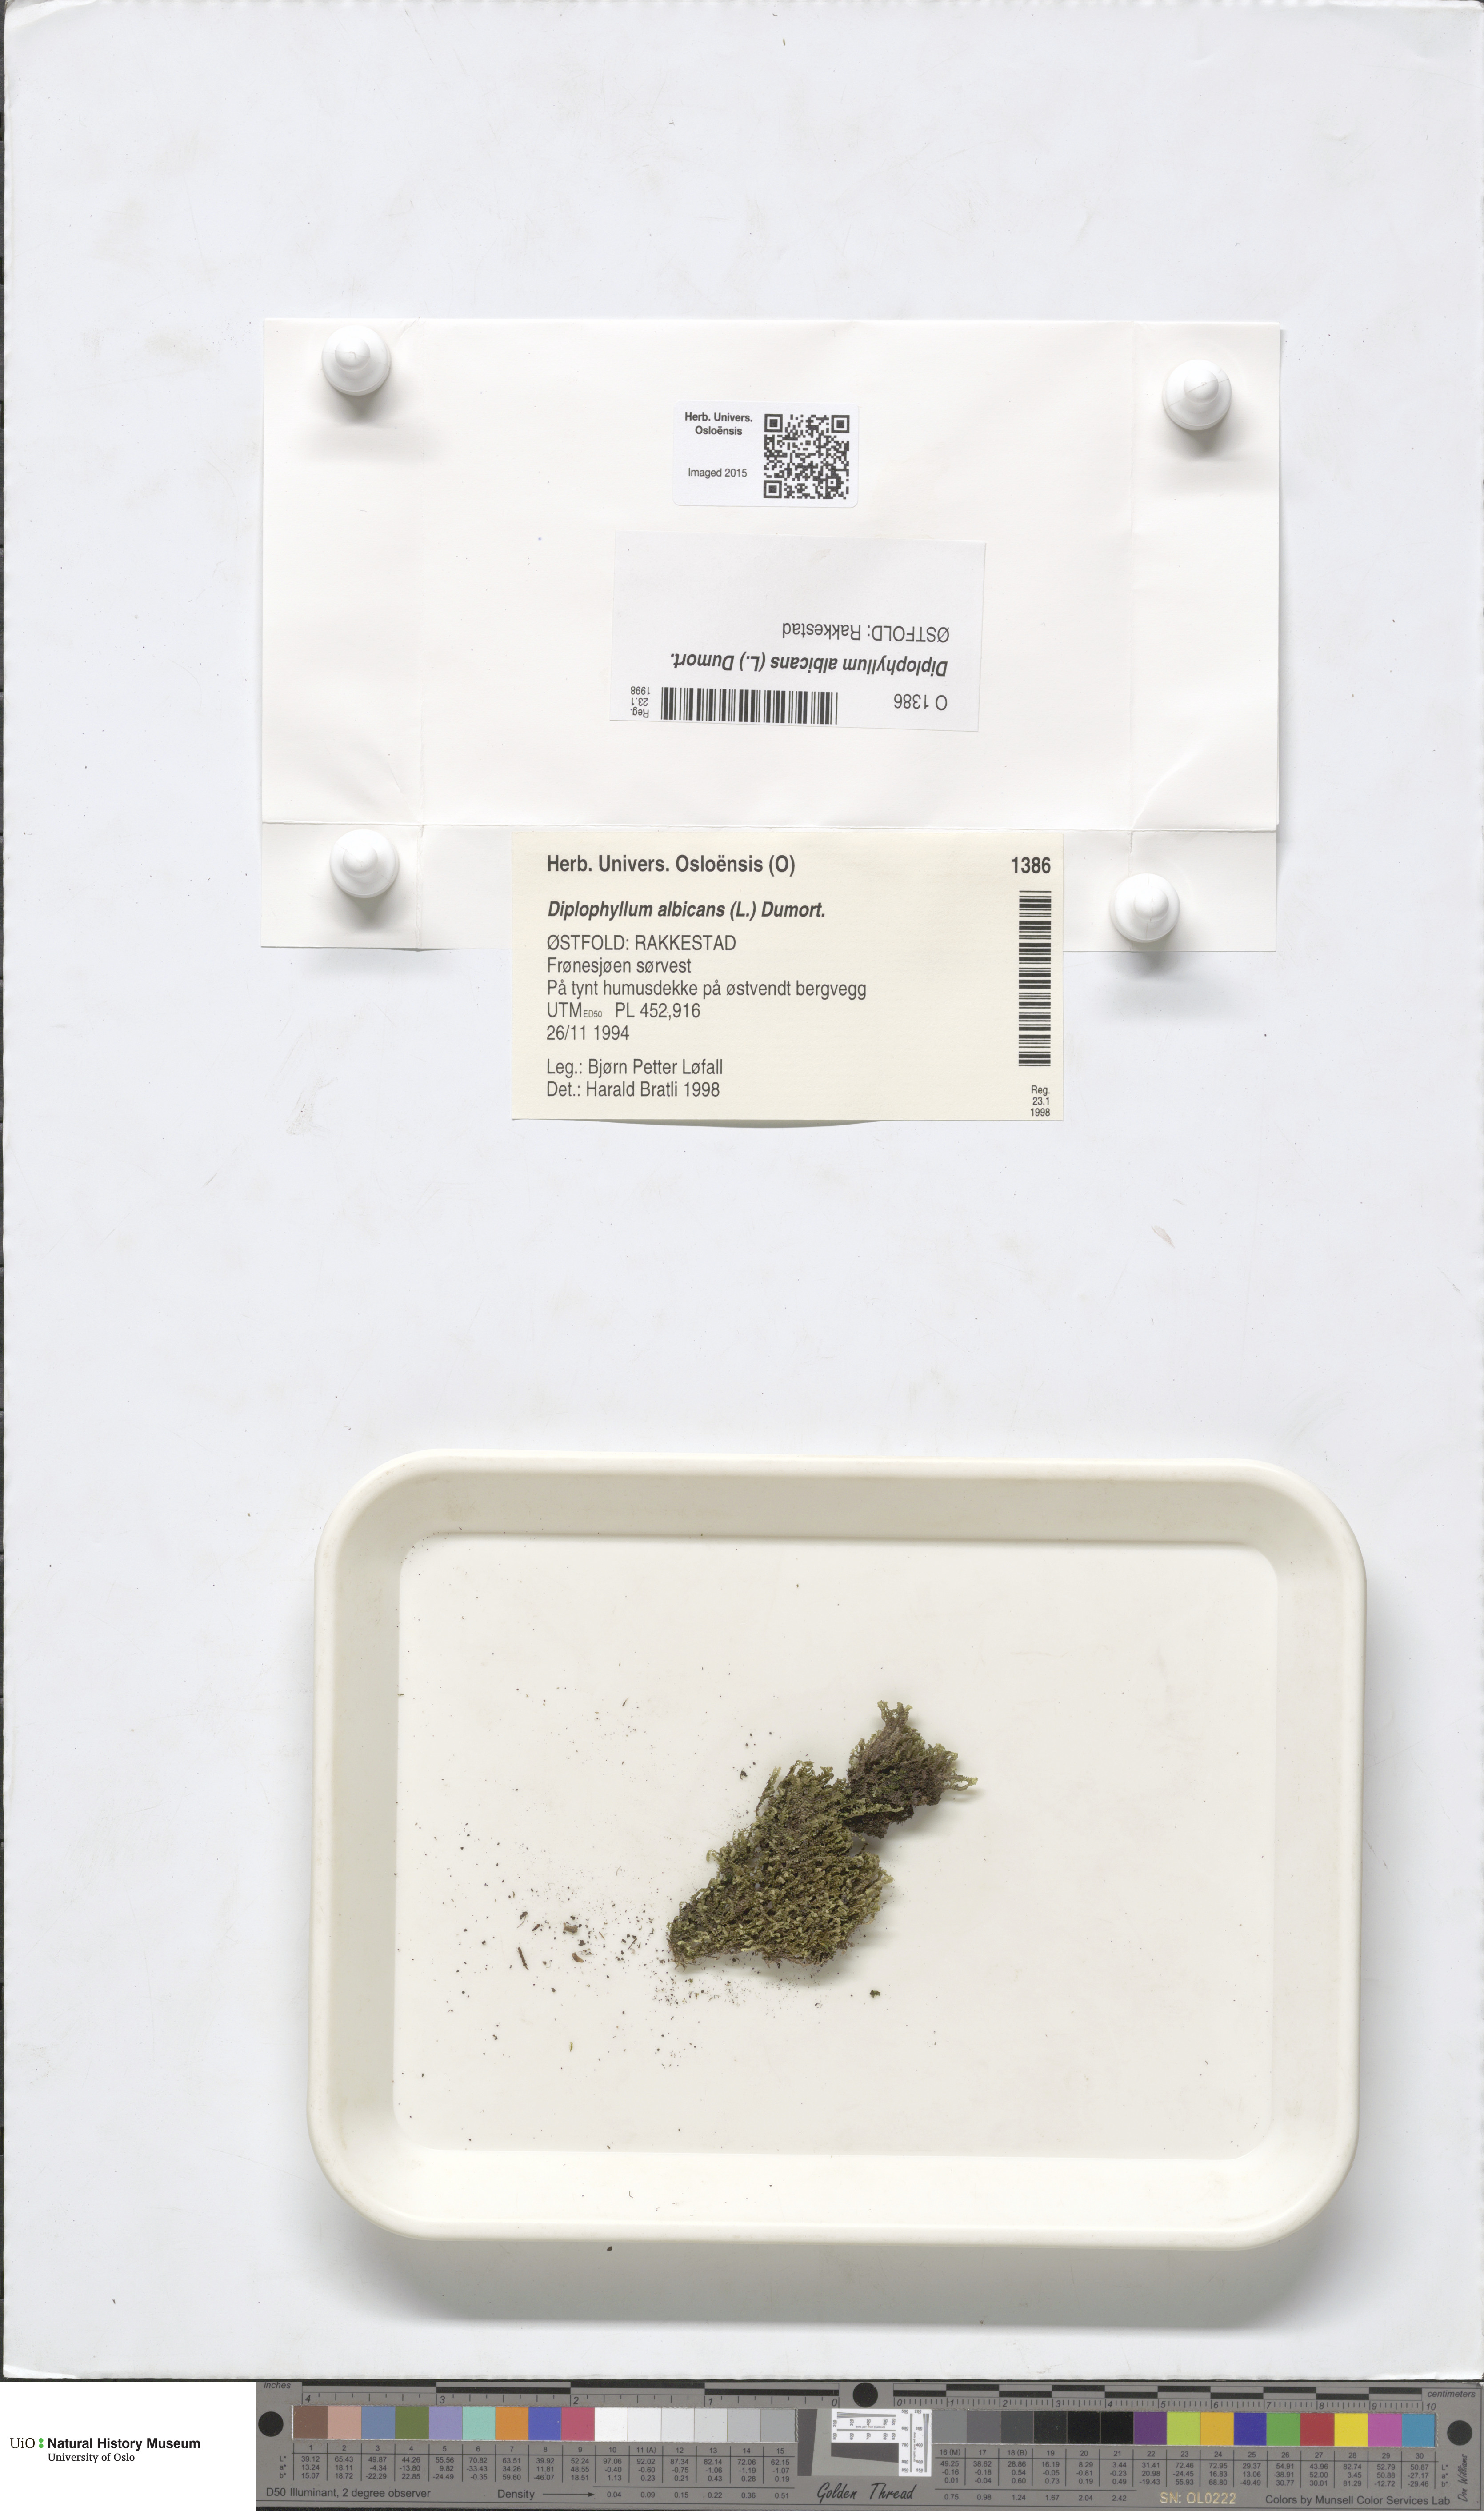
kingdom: Plantae
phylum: Marchantiophyta
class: Jungermanniopsida
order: Jungermanniales
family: Scapaniaceae
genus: Diplophyllum
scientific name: Diplophyllum albicans
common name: White earwort
